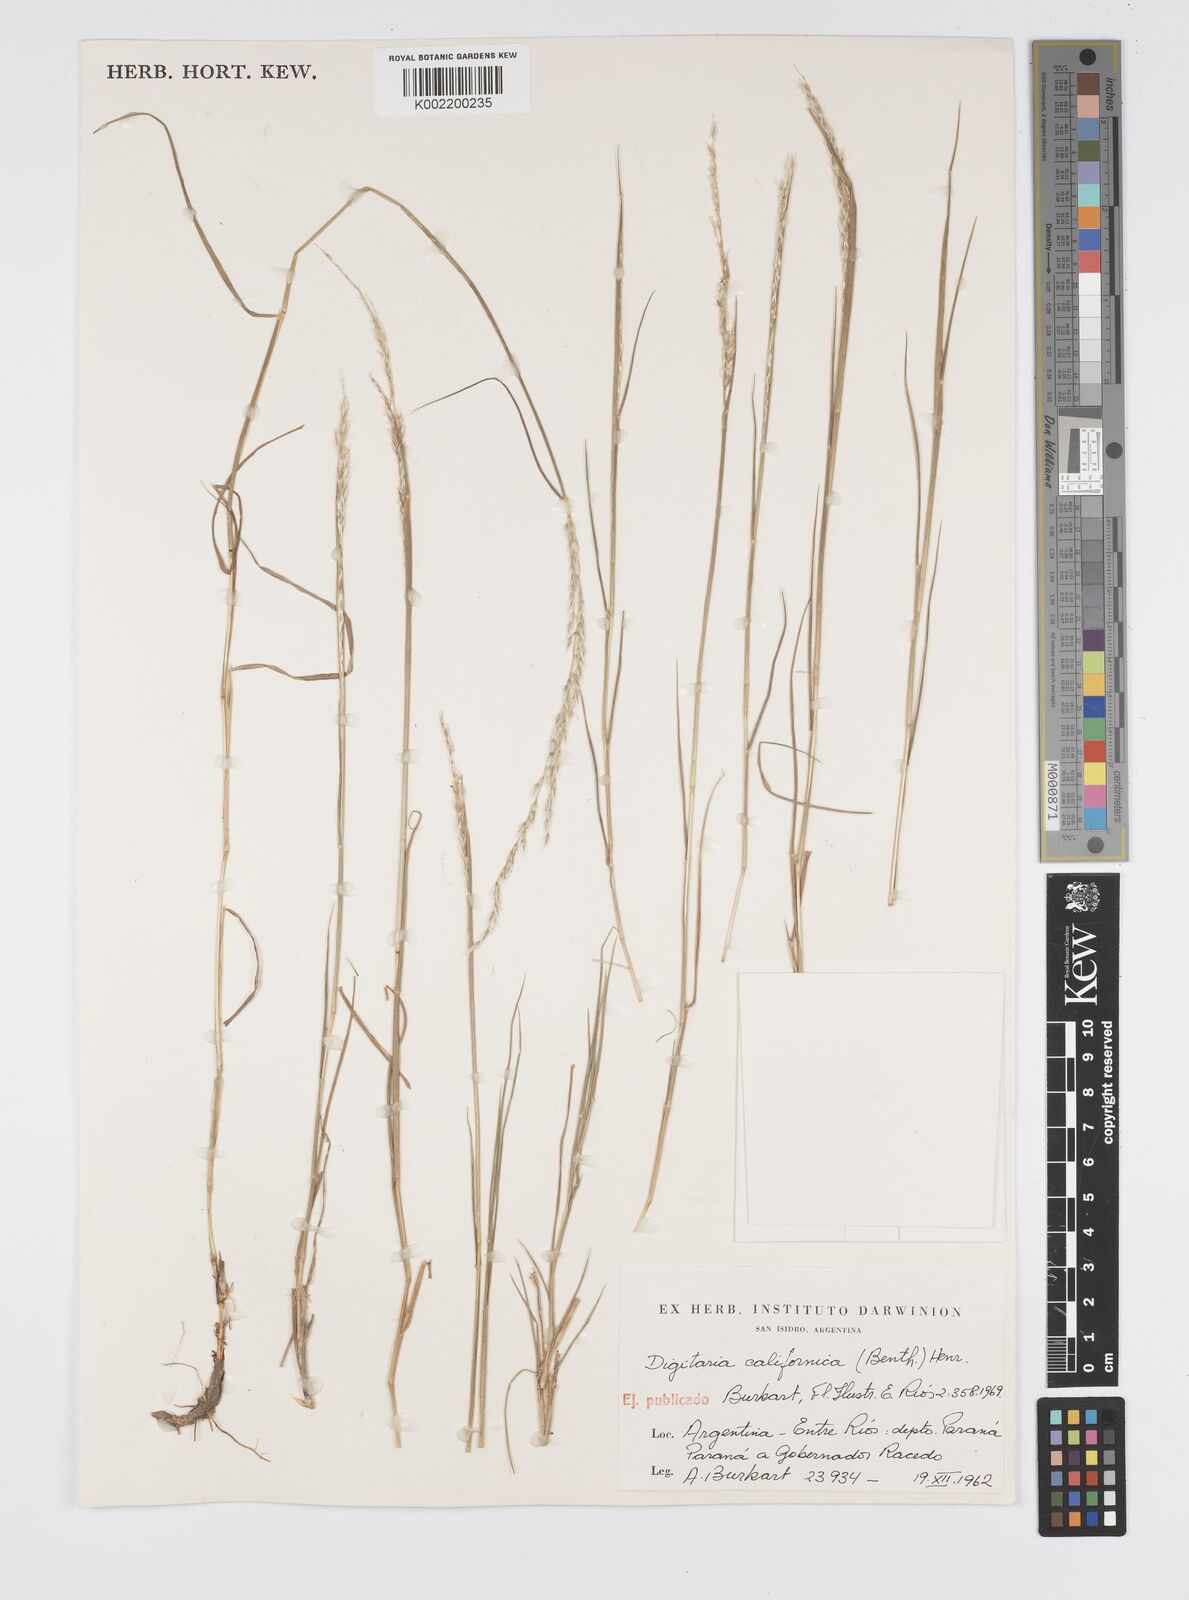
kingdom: Plantae
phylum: Tracheophyta
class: Liliopsida
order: Poales
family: Poaceae
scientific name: Poaceae
